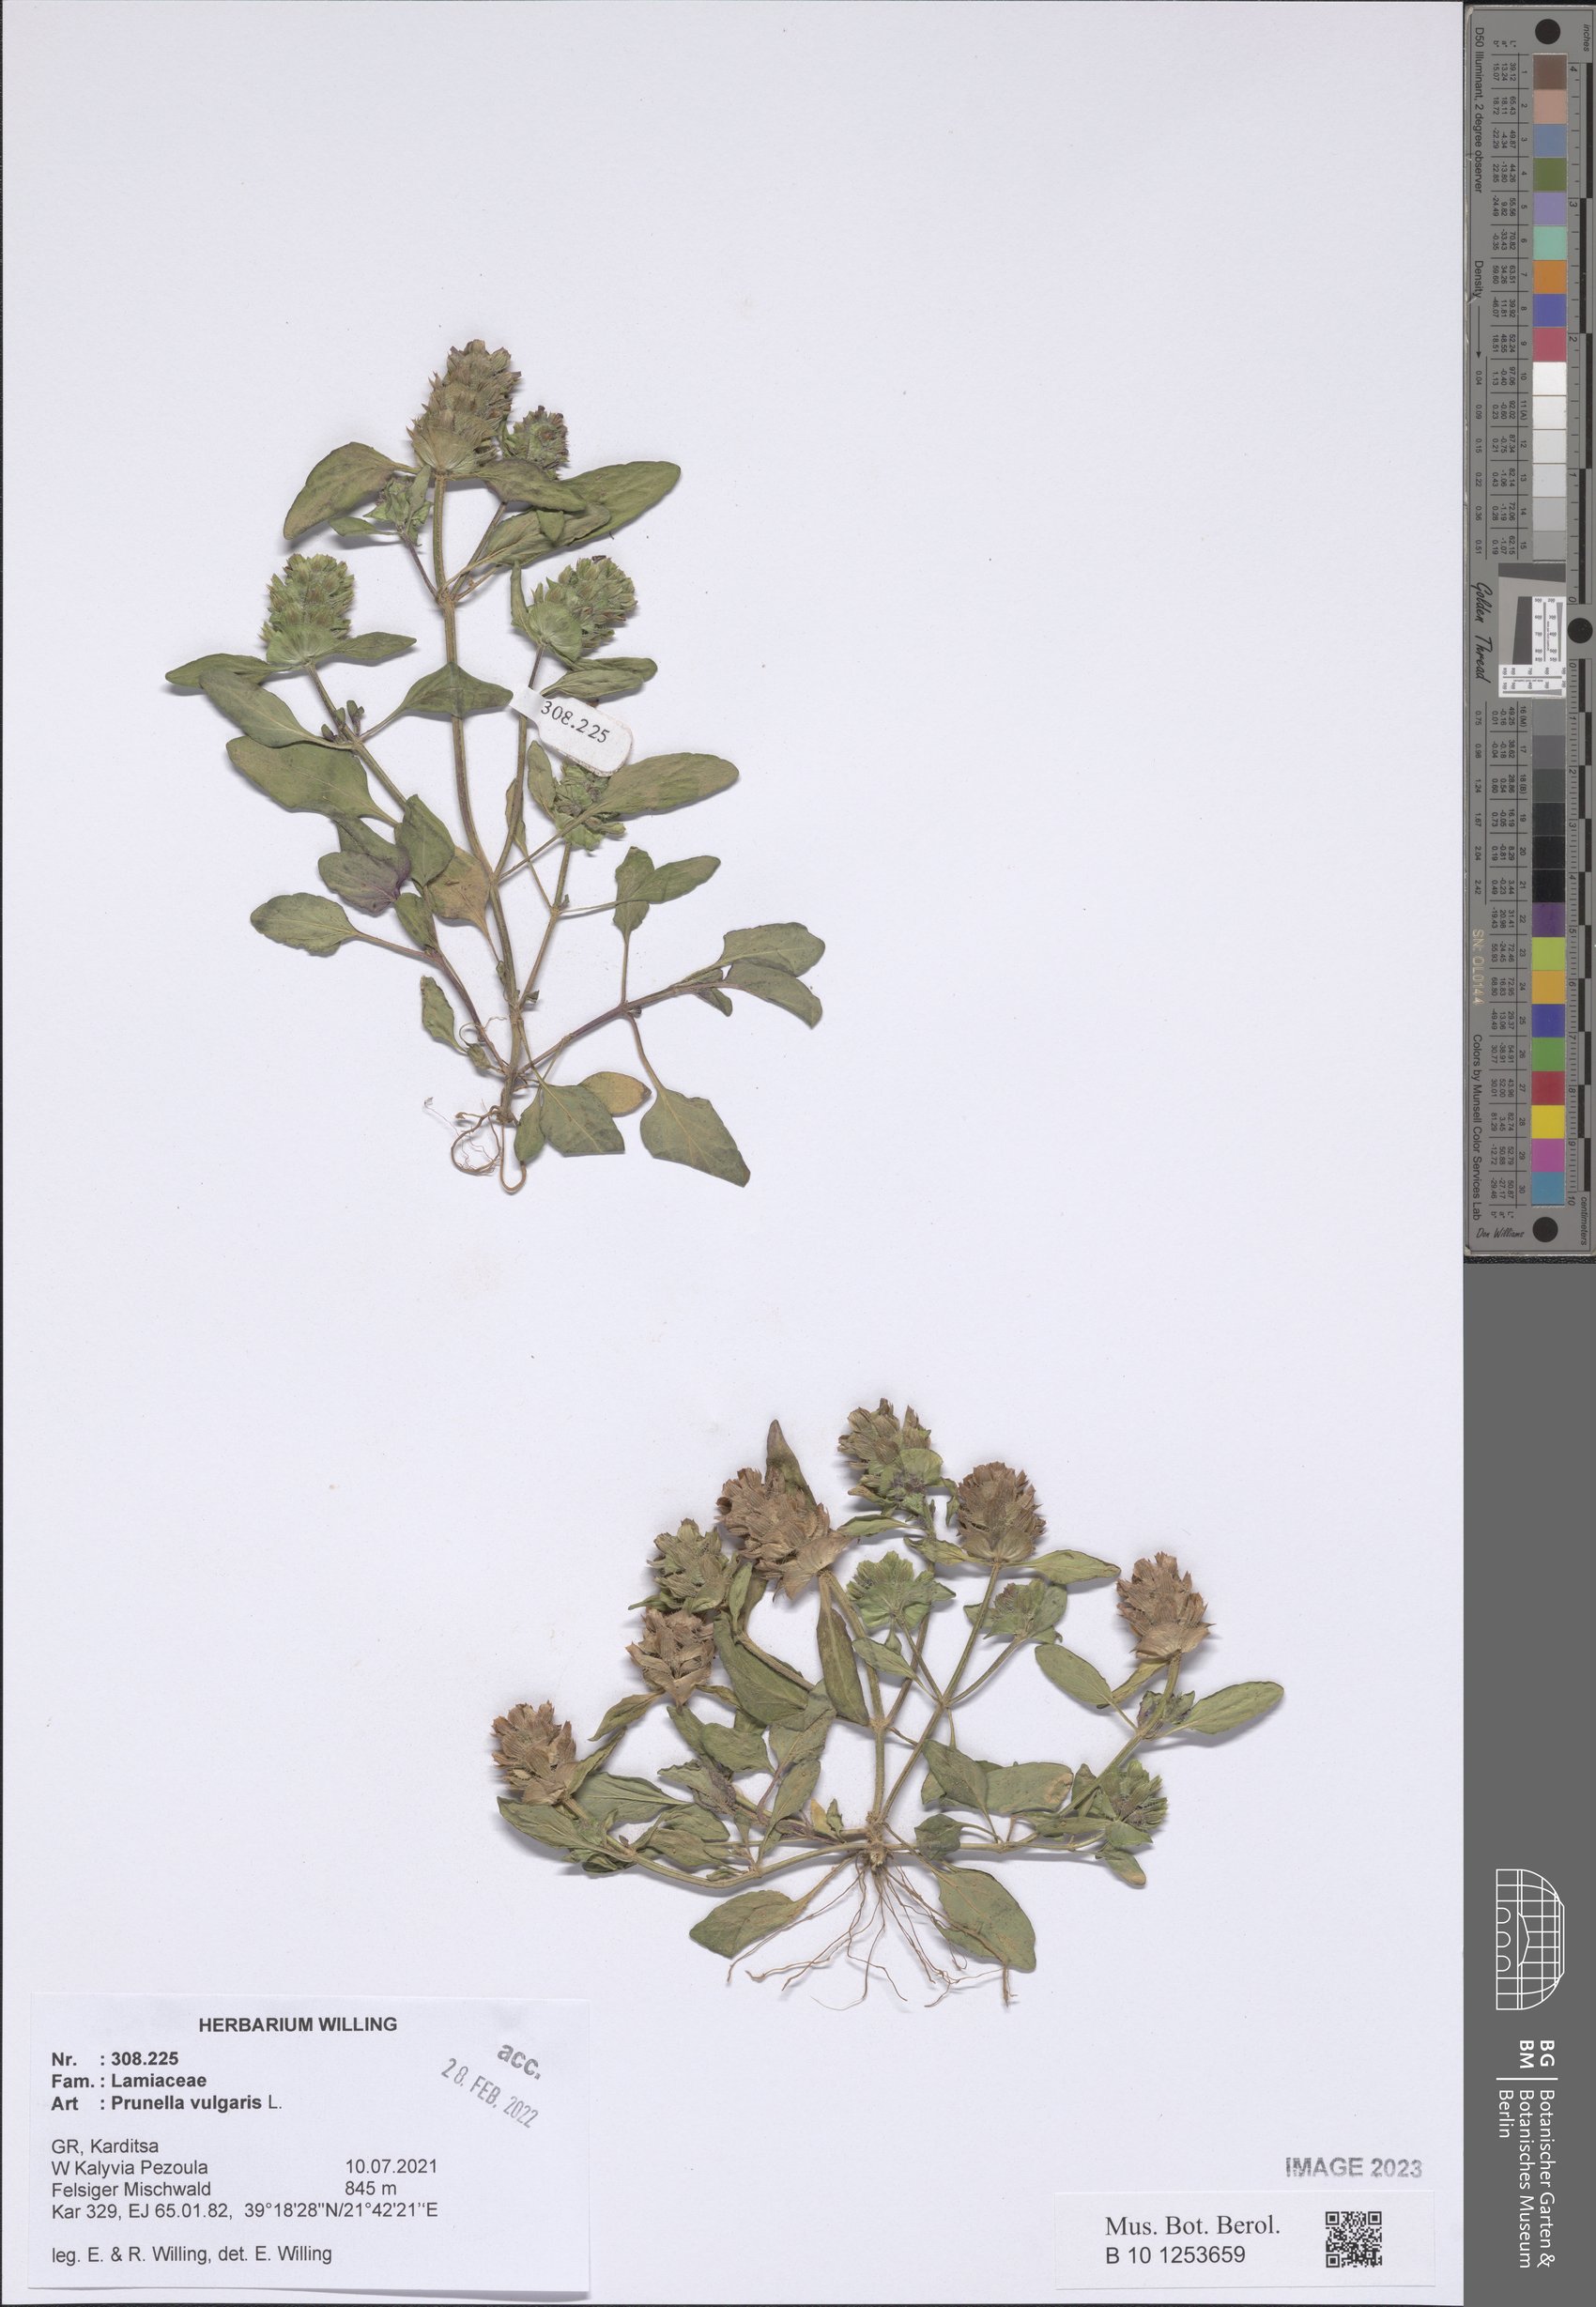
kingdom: Plantae
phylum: Tracheophyta
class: Magnoliopsida
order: Lamiales
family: Lamiaceae
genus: Prunella
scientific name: Prunella vulgaris
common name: Heal-all
